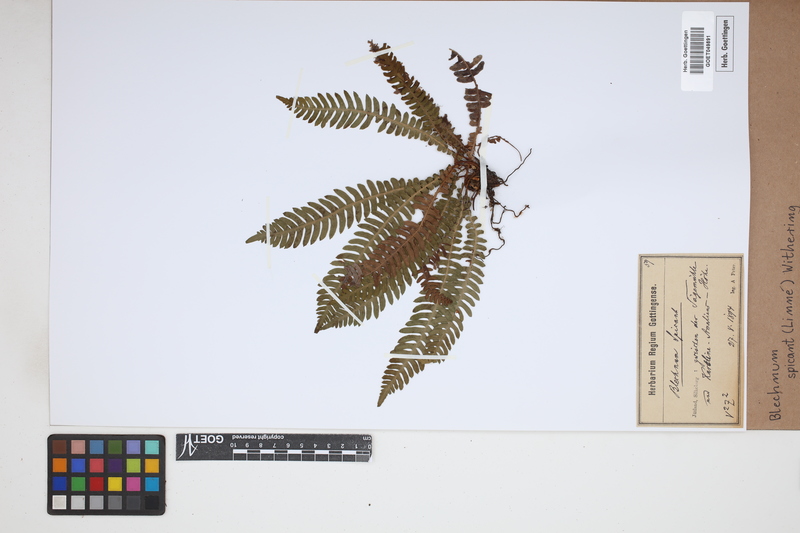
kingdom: Plantae
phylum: Tracheophyta
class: Polypodiopsida
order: Polypodiales
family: Blechnaceae
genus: Struthiopteris
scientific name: Struthiopteris spicant
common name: Deer fern
